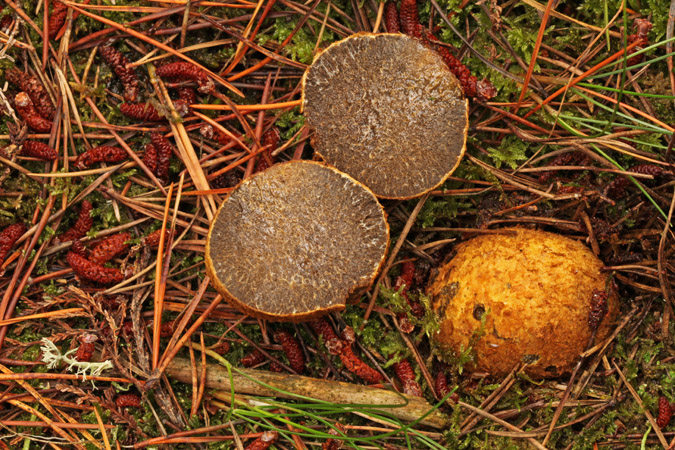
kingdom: Fungi
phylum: Basidiomycota
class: Agaricomycetes
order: Boletales
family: Rhizopogonaceae
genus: Rhizopogon
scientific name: Rhizopogon obtextus
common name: gul skægtrøffel
